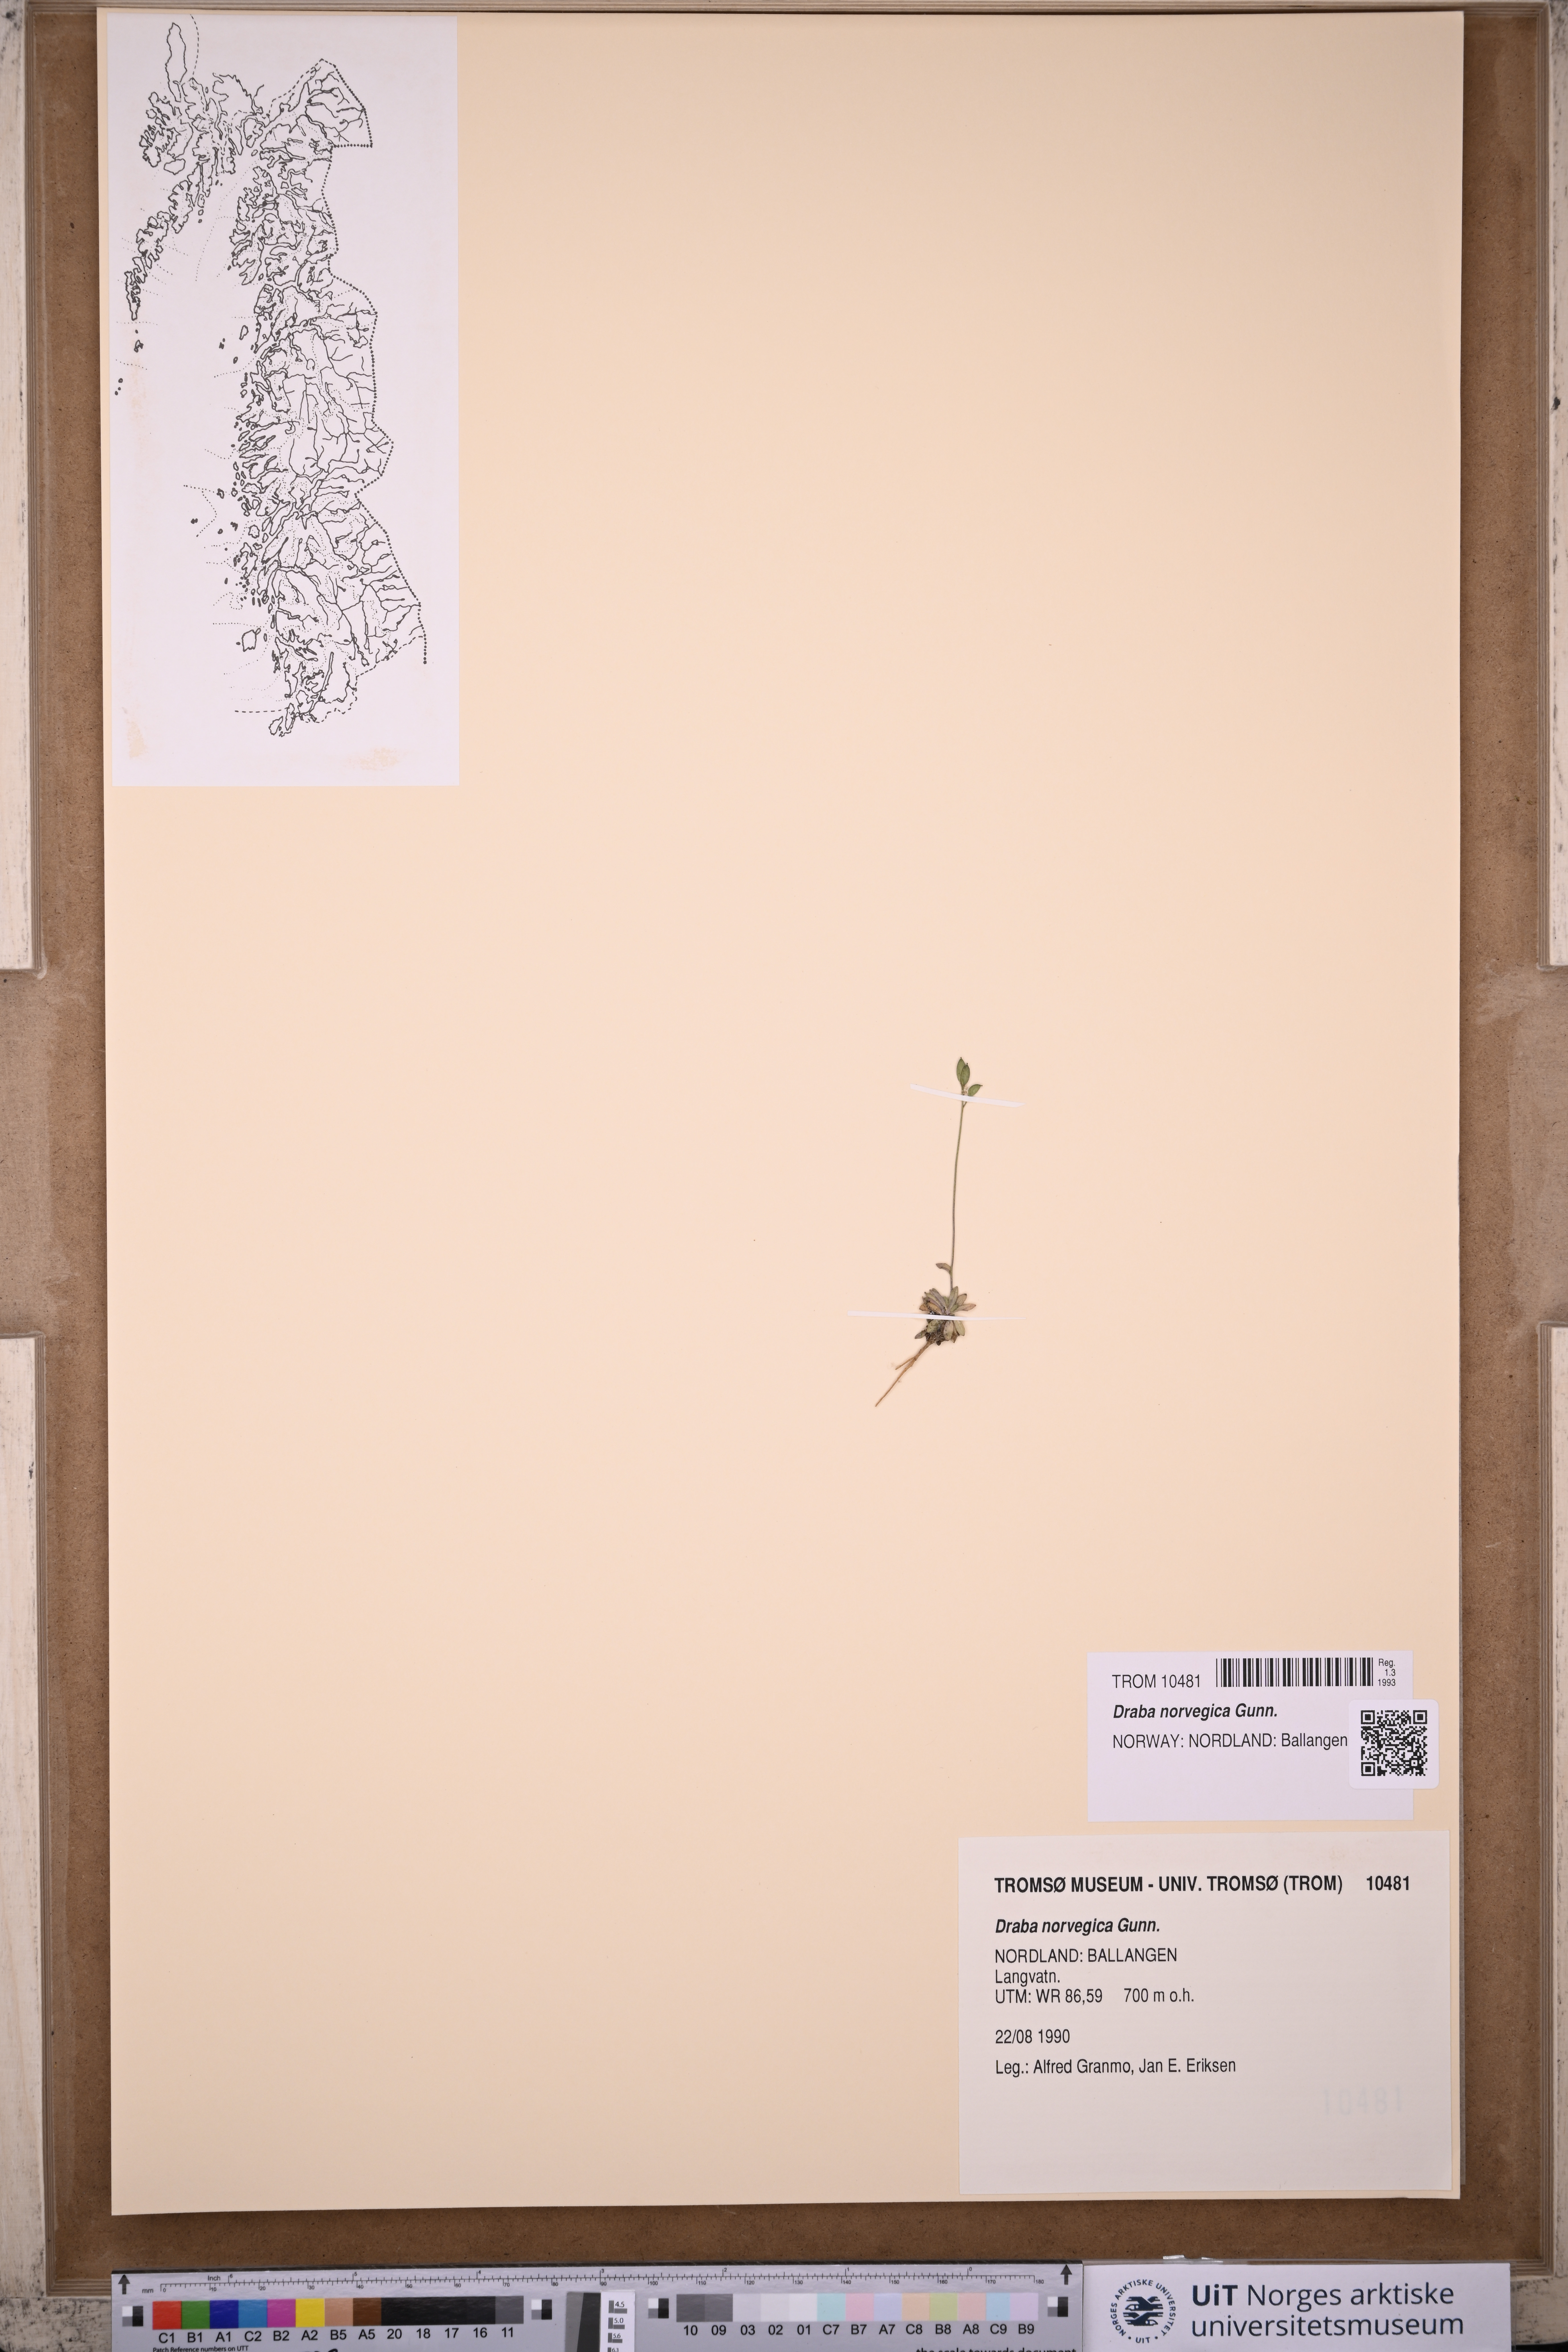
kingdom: Plantae
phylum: Tracheophyta
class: Magnoliopsida
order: Brassicales
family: Brassicaceae
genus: Draba
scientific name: Draba norvegica
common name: Rock whitlowgrass
